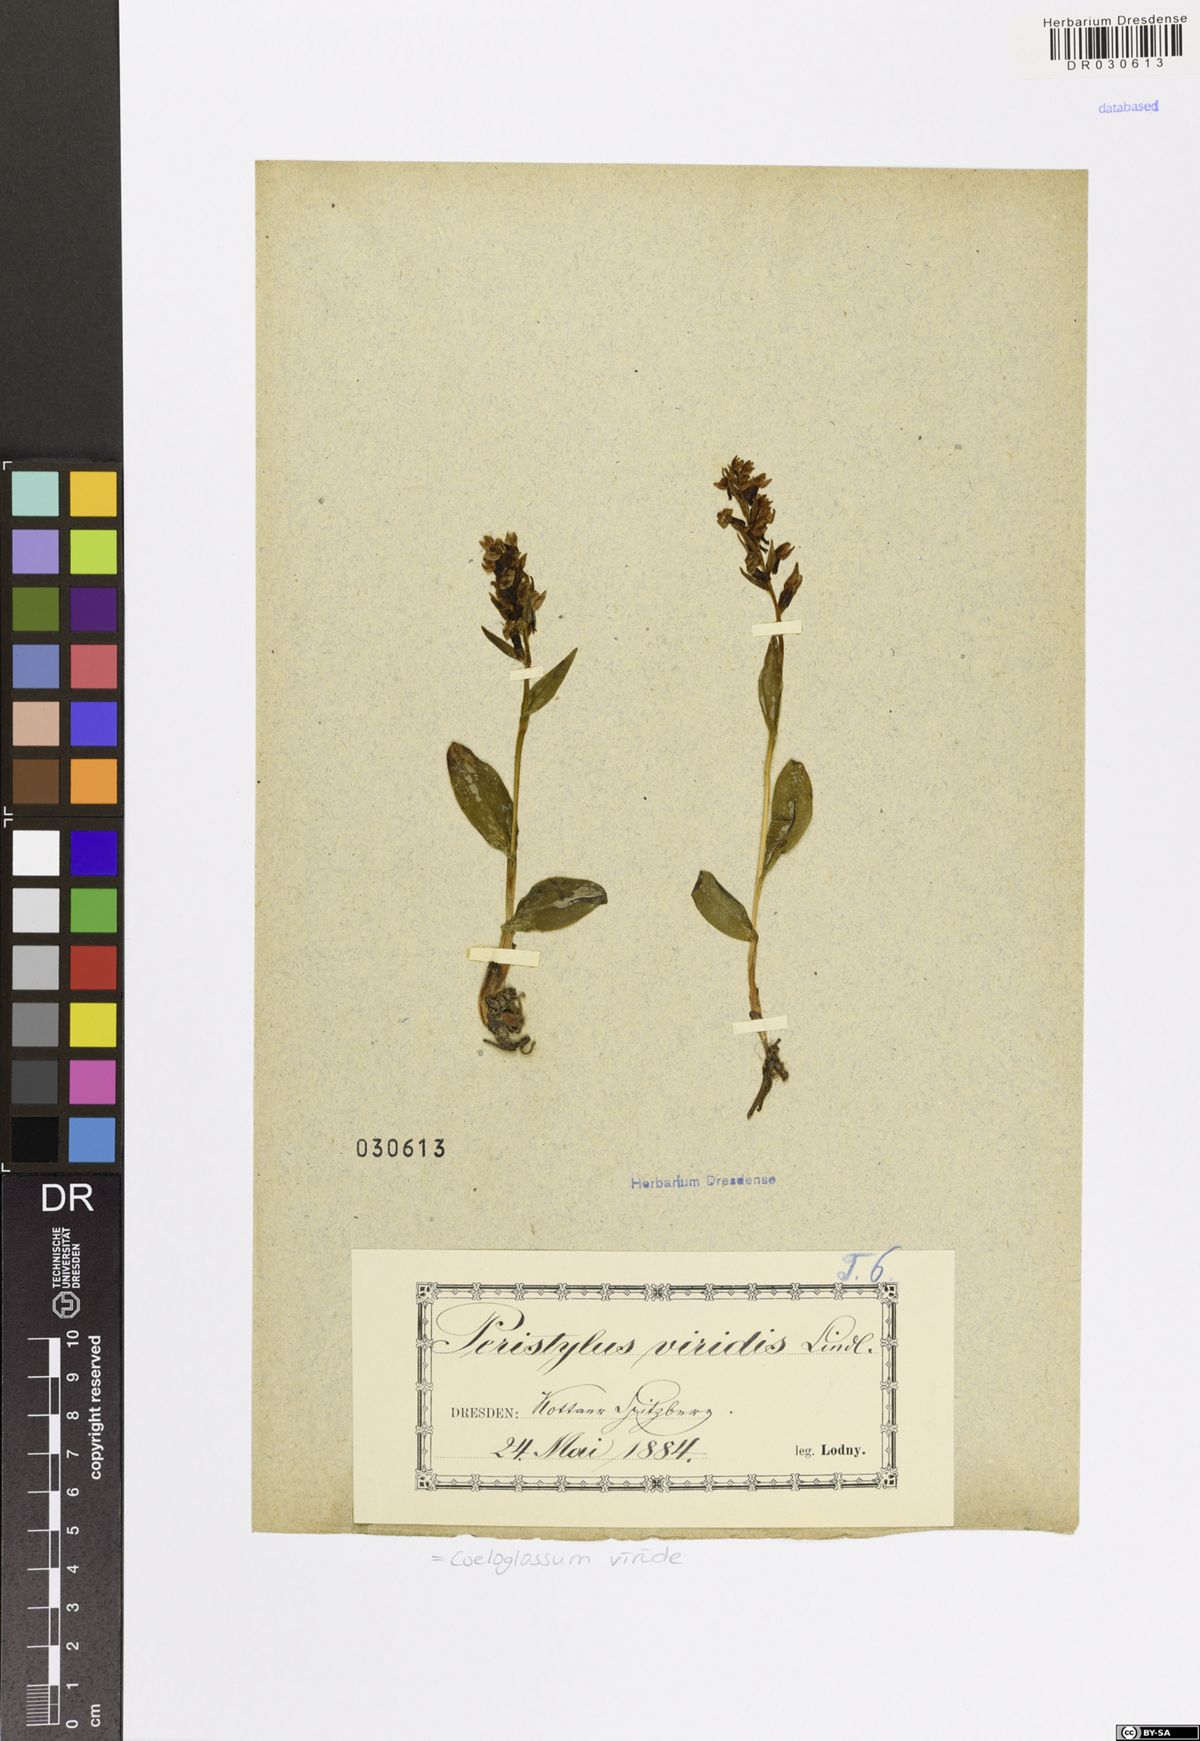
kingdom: Plantae
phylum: Tracheophyta
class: Liliopsida
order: Asparagales
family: Orchidaceae
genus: Dactylorhiza
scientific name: Dactylorhiza viridis
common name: Longbract frog orchid
